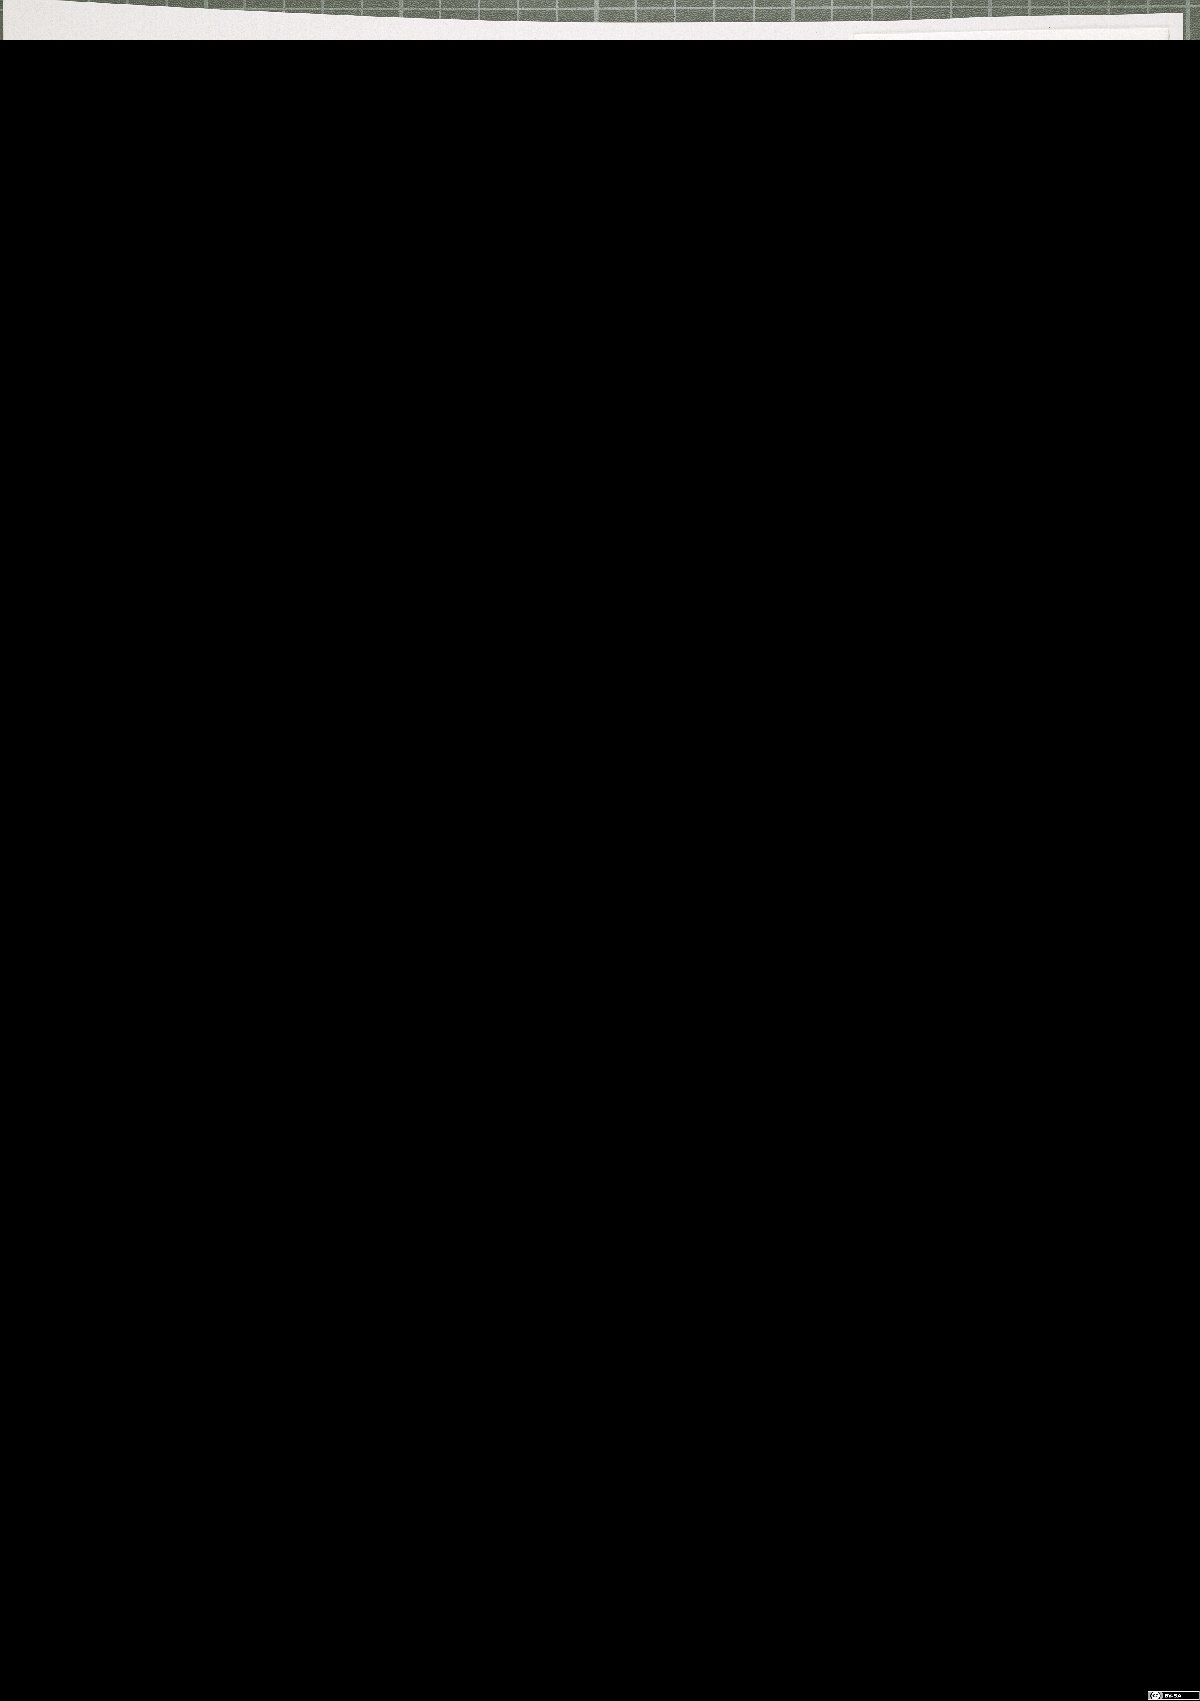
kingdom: Plantae
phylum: Tracheophyta
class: Magnoliopsida
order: Lamiales
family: Scrophulariaceae
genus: Scrophularia
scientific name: Scrophularia heterophylla
